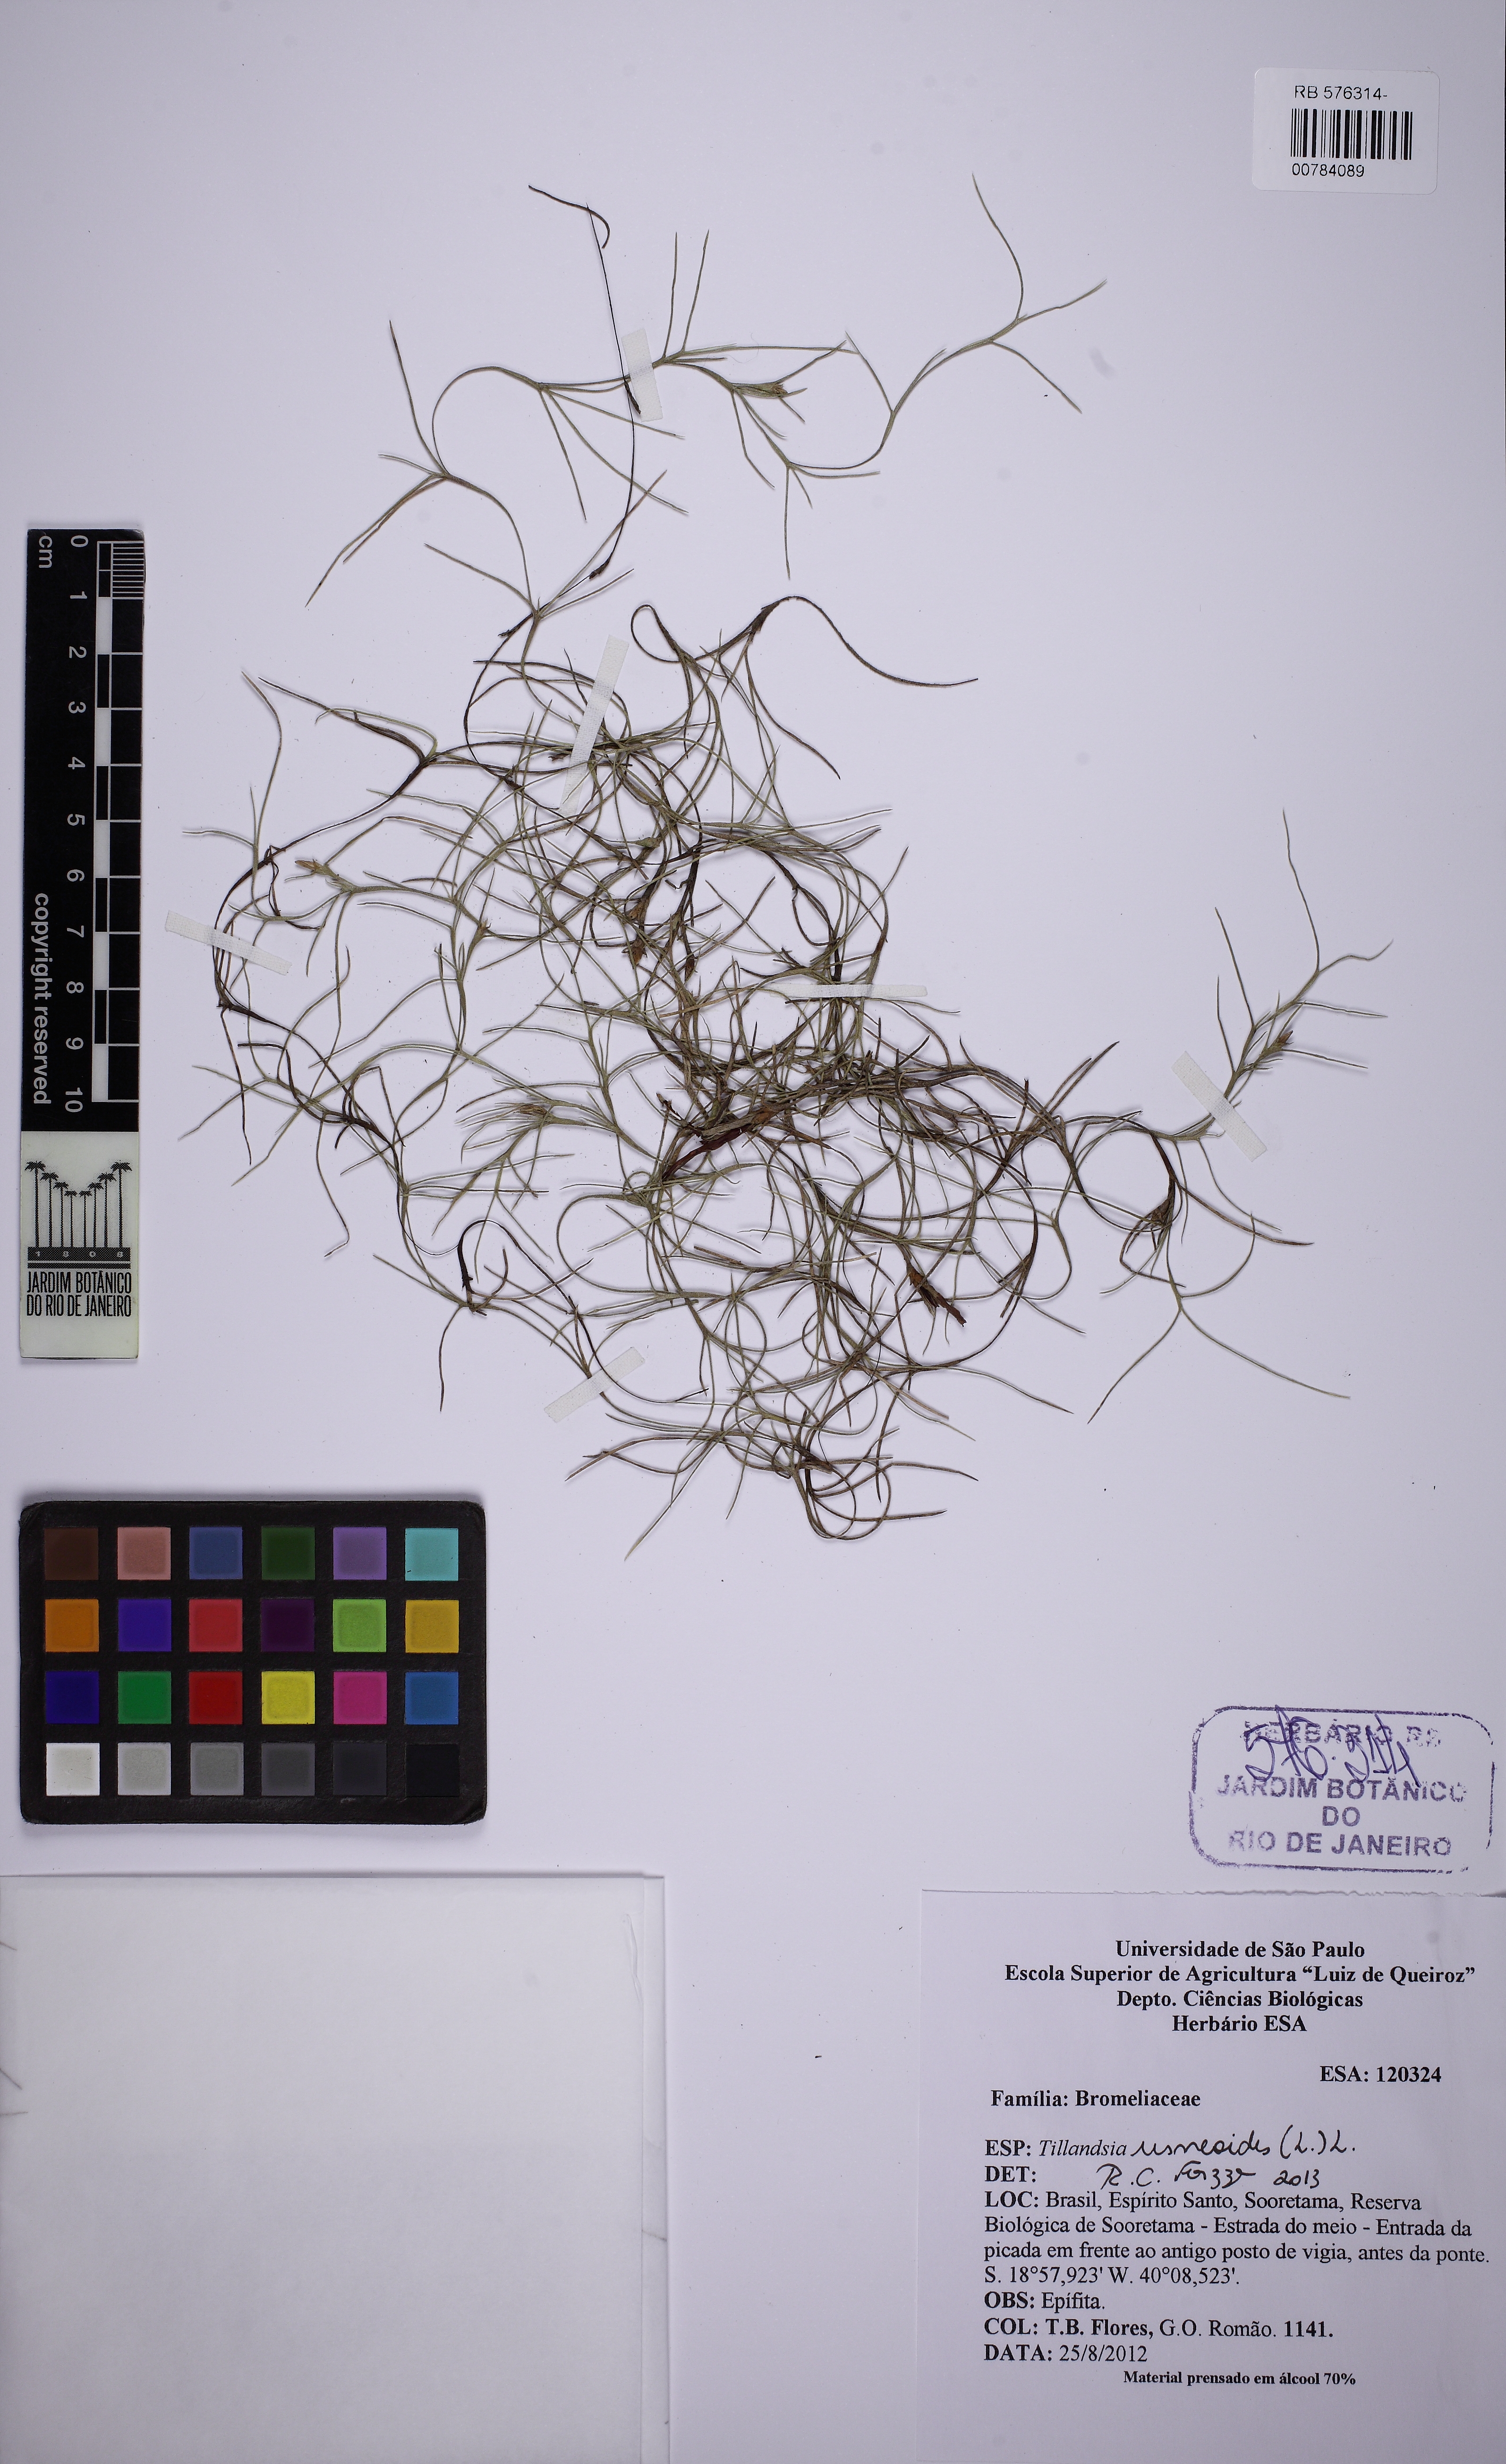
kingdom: Plantae
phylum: Tracheophyta
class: Liliopsida
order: Poales
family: Bromeliaceae
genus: Tillandsia
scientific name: Tillandsia usneoides
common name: Spanish moss
